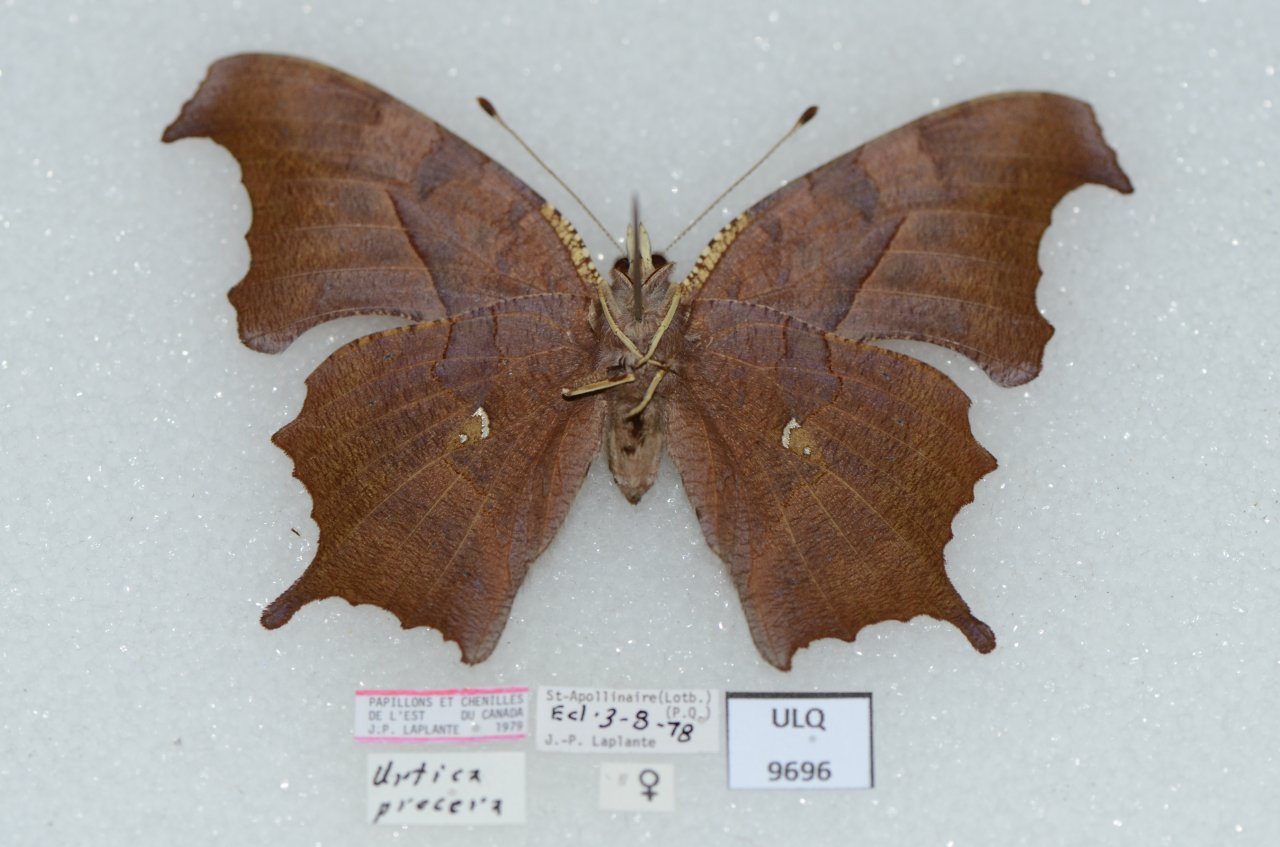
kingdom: Animalia
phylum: Arthropoda
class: Insecta
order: Lepidoptera
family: Nymphalidae
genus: Polygonia
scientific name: Polygonia interrogationis
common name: Question Mark
